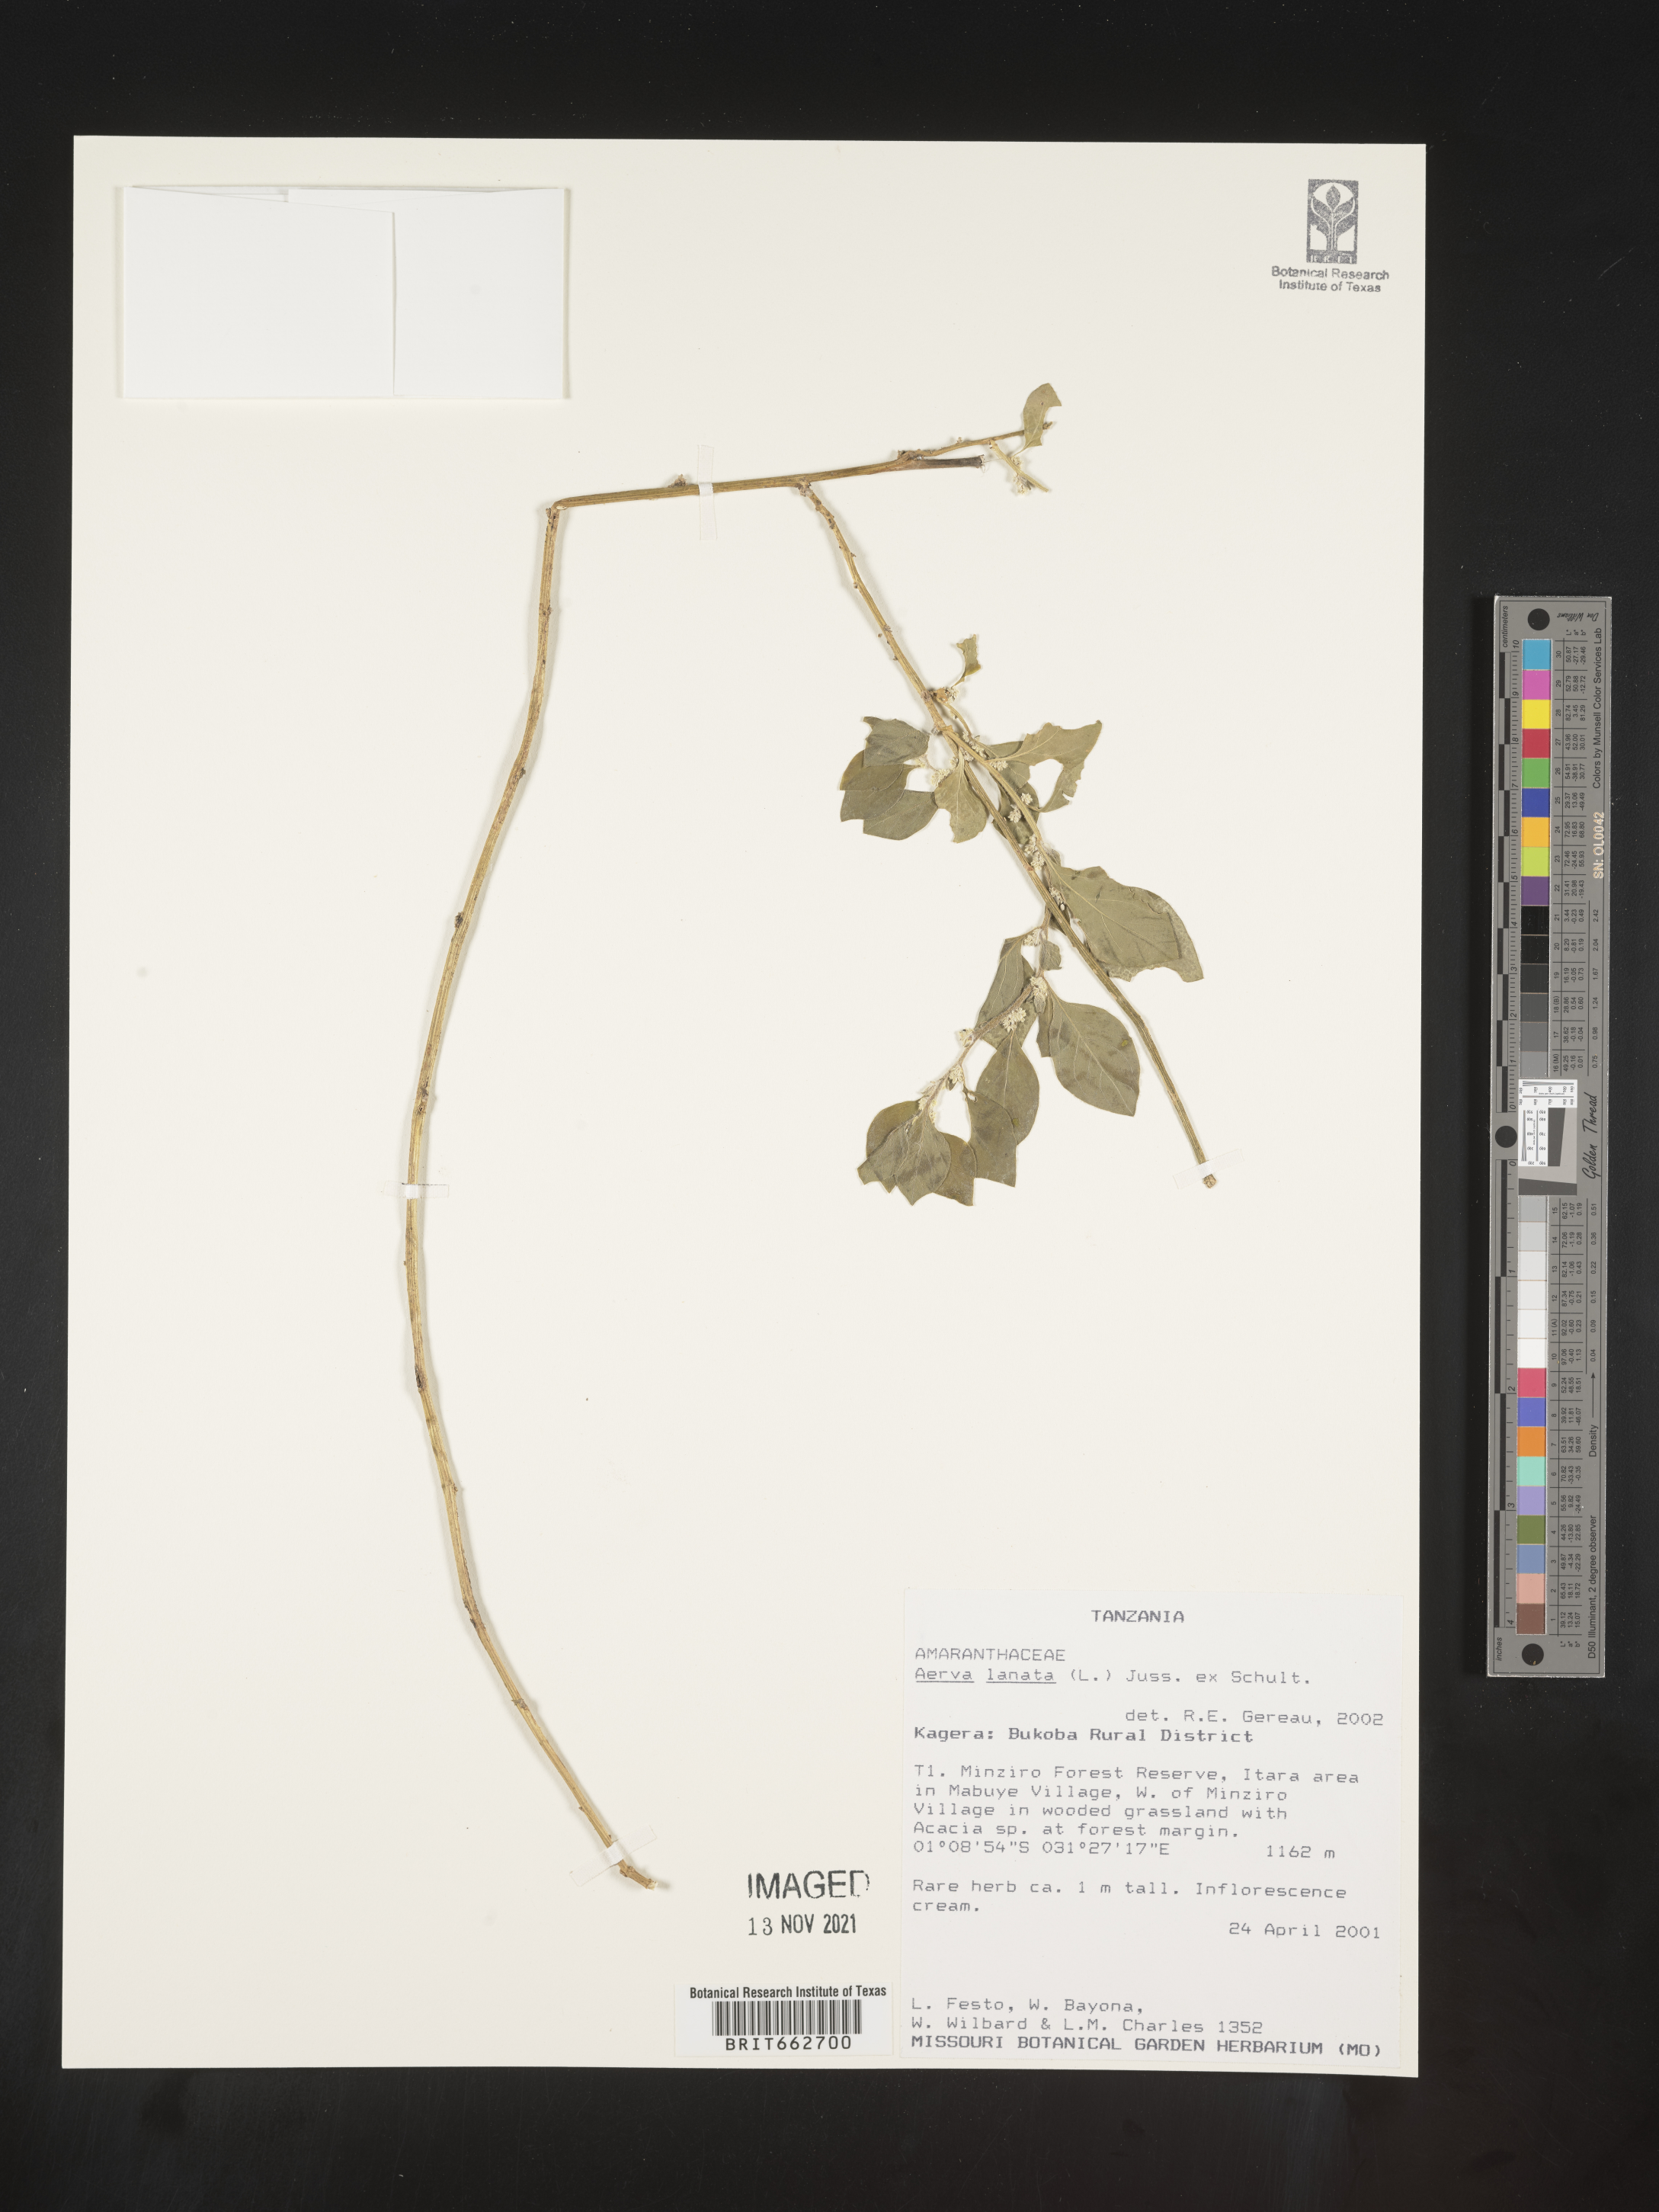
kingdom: Plantae
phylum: Tracheophyta
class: Magnoliopsida
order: Caryophyllales
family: Amaranthaceae
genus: Aerva
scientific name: Aerva
